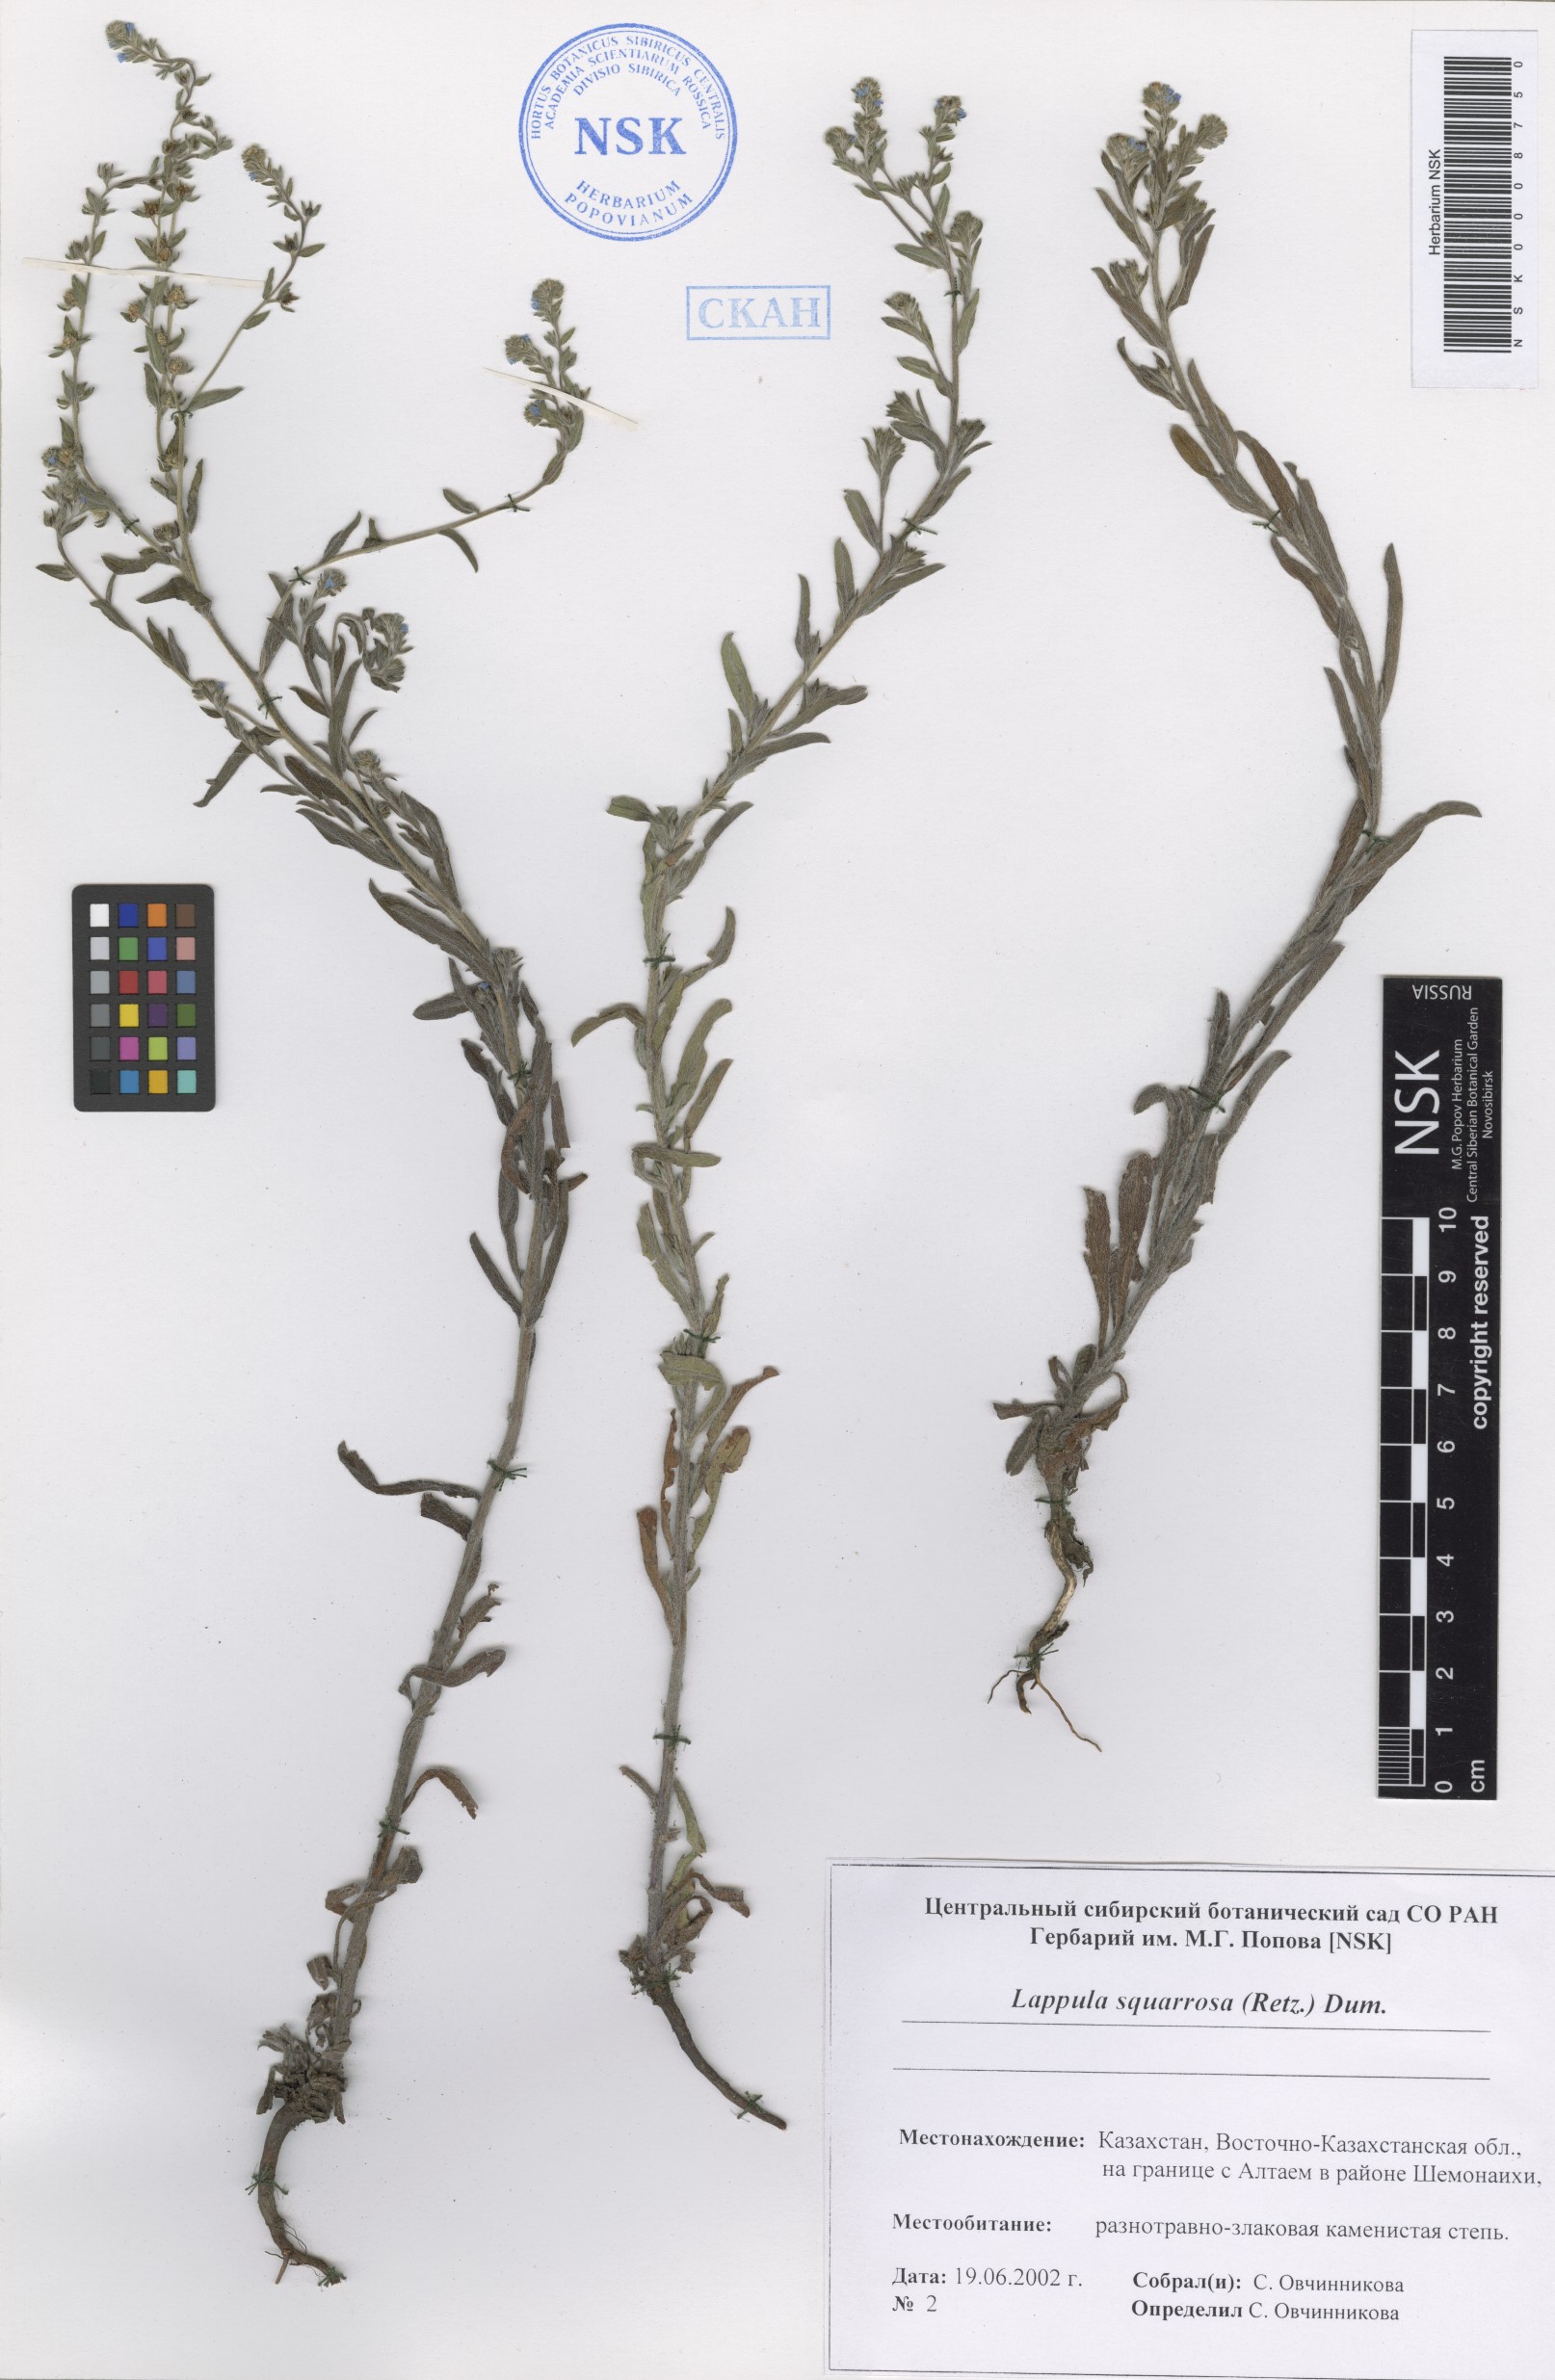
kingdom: Plantae
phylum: Tracheophyta
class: Magnoliopsida
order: Boraginales
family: Boraginaceae
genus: Lappula
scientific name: Lappula squarrosa
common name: European stickseed
